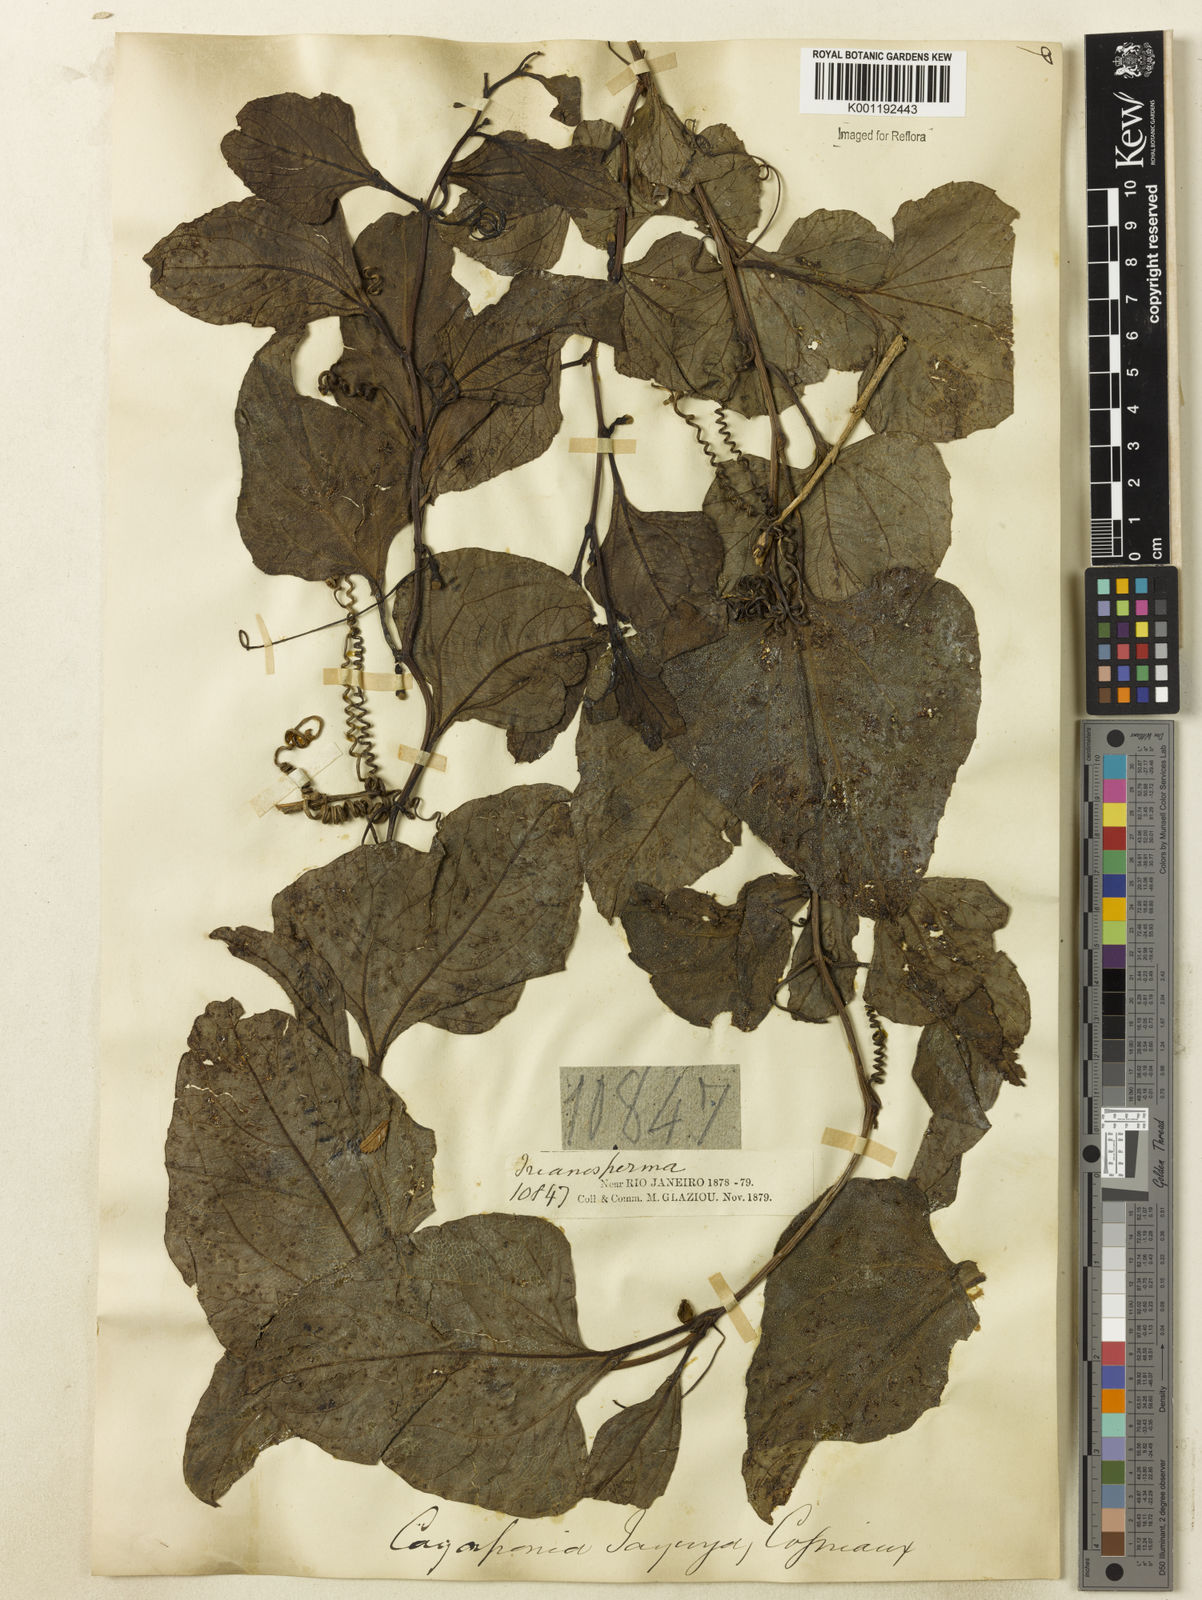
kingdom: Plantae
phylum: Tracheophyta
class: Magnoliopsida
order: Cucurbitales
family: Cucurbitaceae
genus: Cayaponia
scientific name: Cayaponia tayuya
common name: Tayuya
